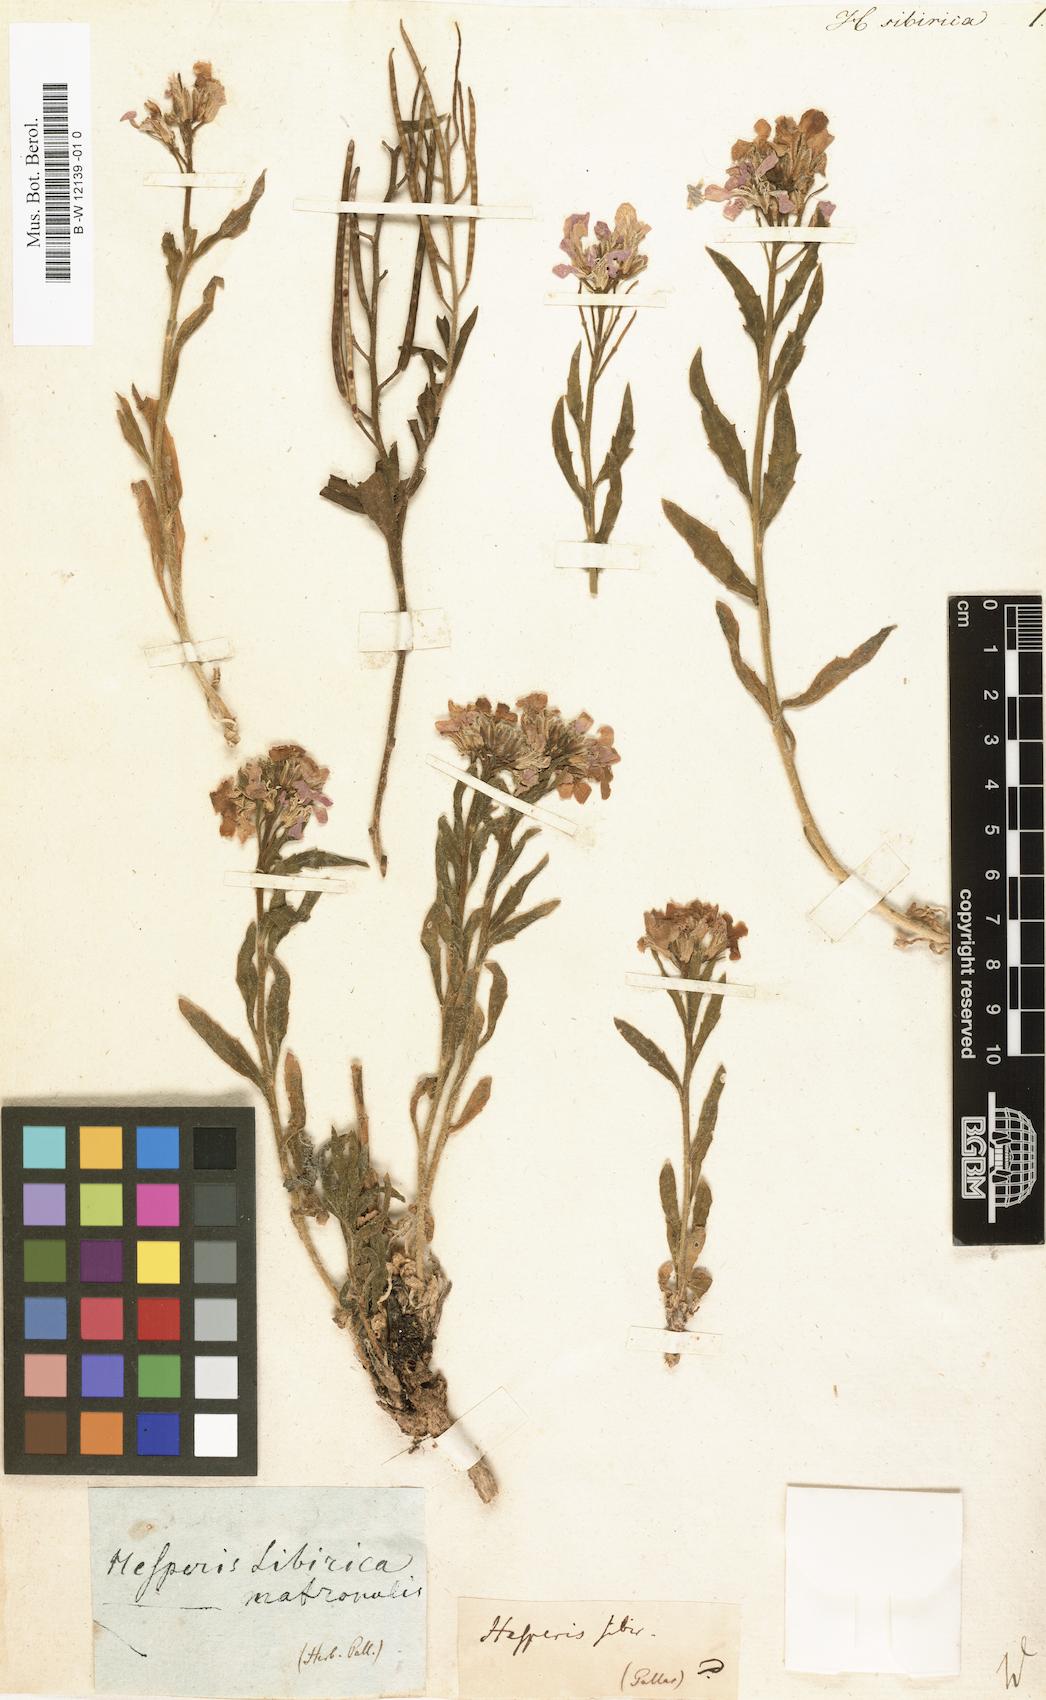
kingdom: Plantae
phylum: Tracheophyta
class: Magnoliopsida
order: Brassicales
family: Brassicaceae
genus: Hesperis
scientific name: Hesperis sibirica
